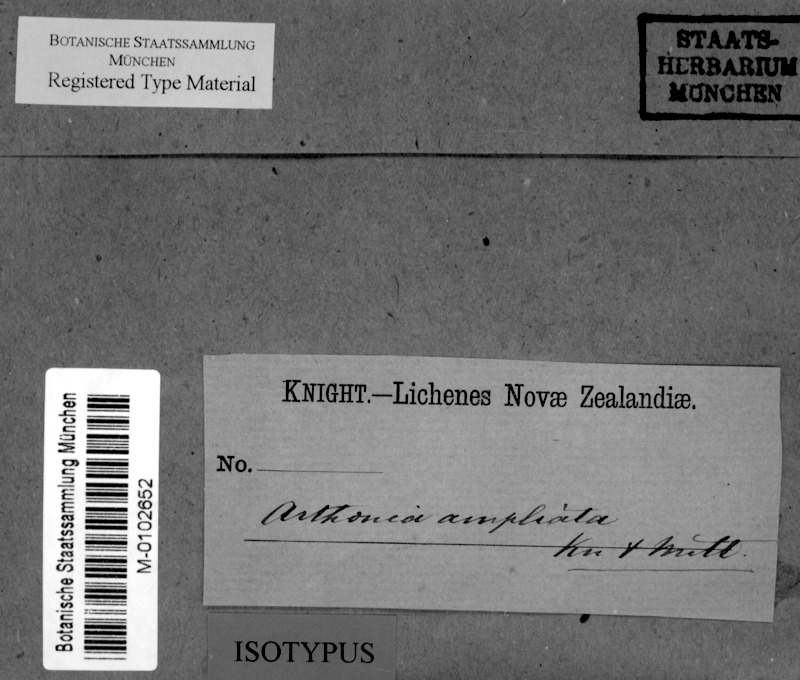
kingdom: Fungi
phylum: Ascomycota
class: Arthoniomycetes
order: Arthoniales
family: Arthoniaceae
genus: Arthothelium
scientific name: Arthothelium ampliatum
